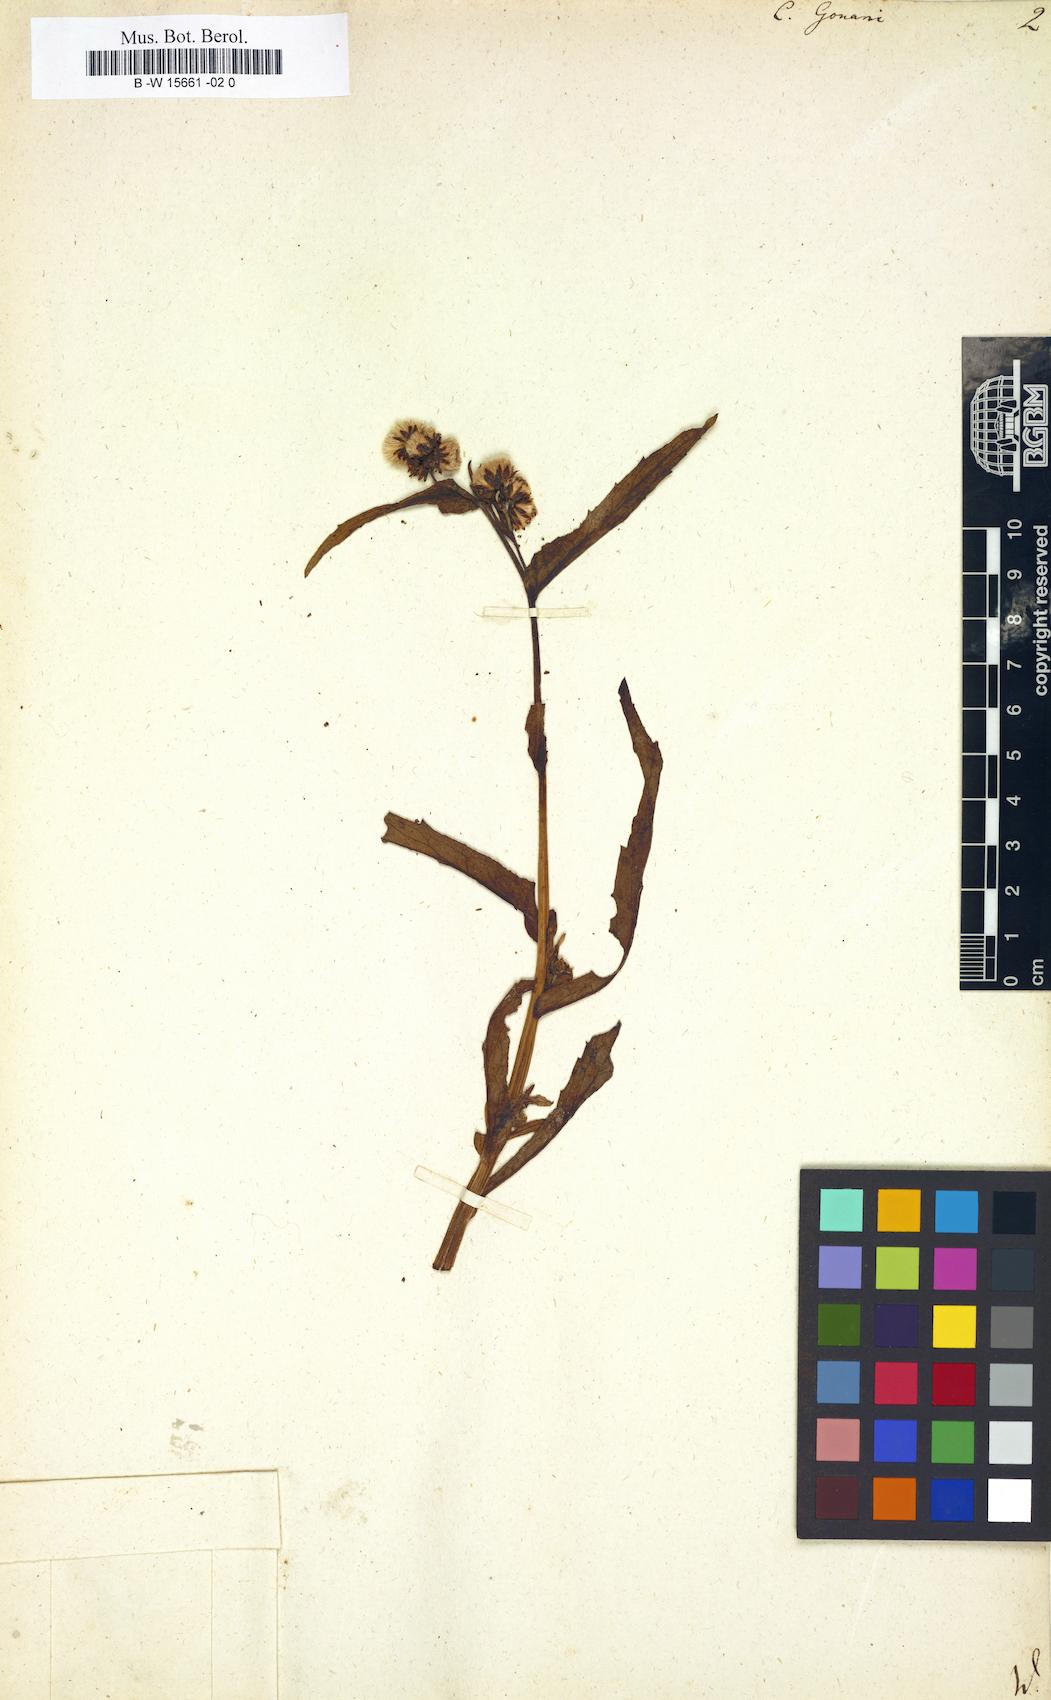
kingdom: Plantae
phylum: Tracheophyta
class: Magnoliopsida
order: Asterales
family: Asteraceae
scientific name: Asteraceae
